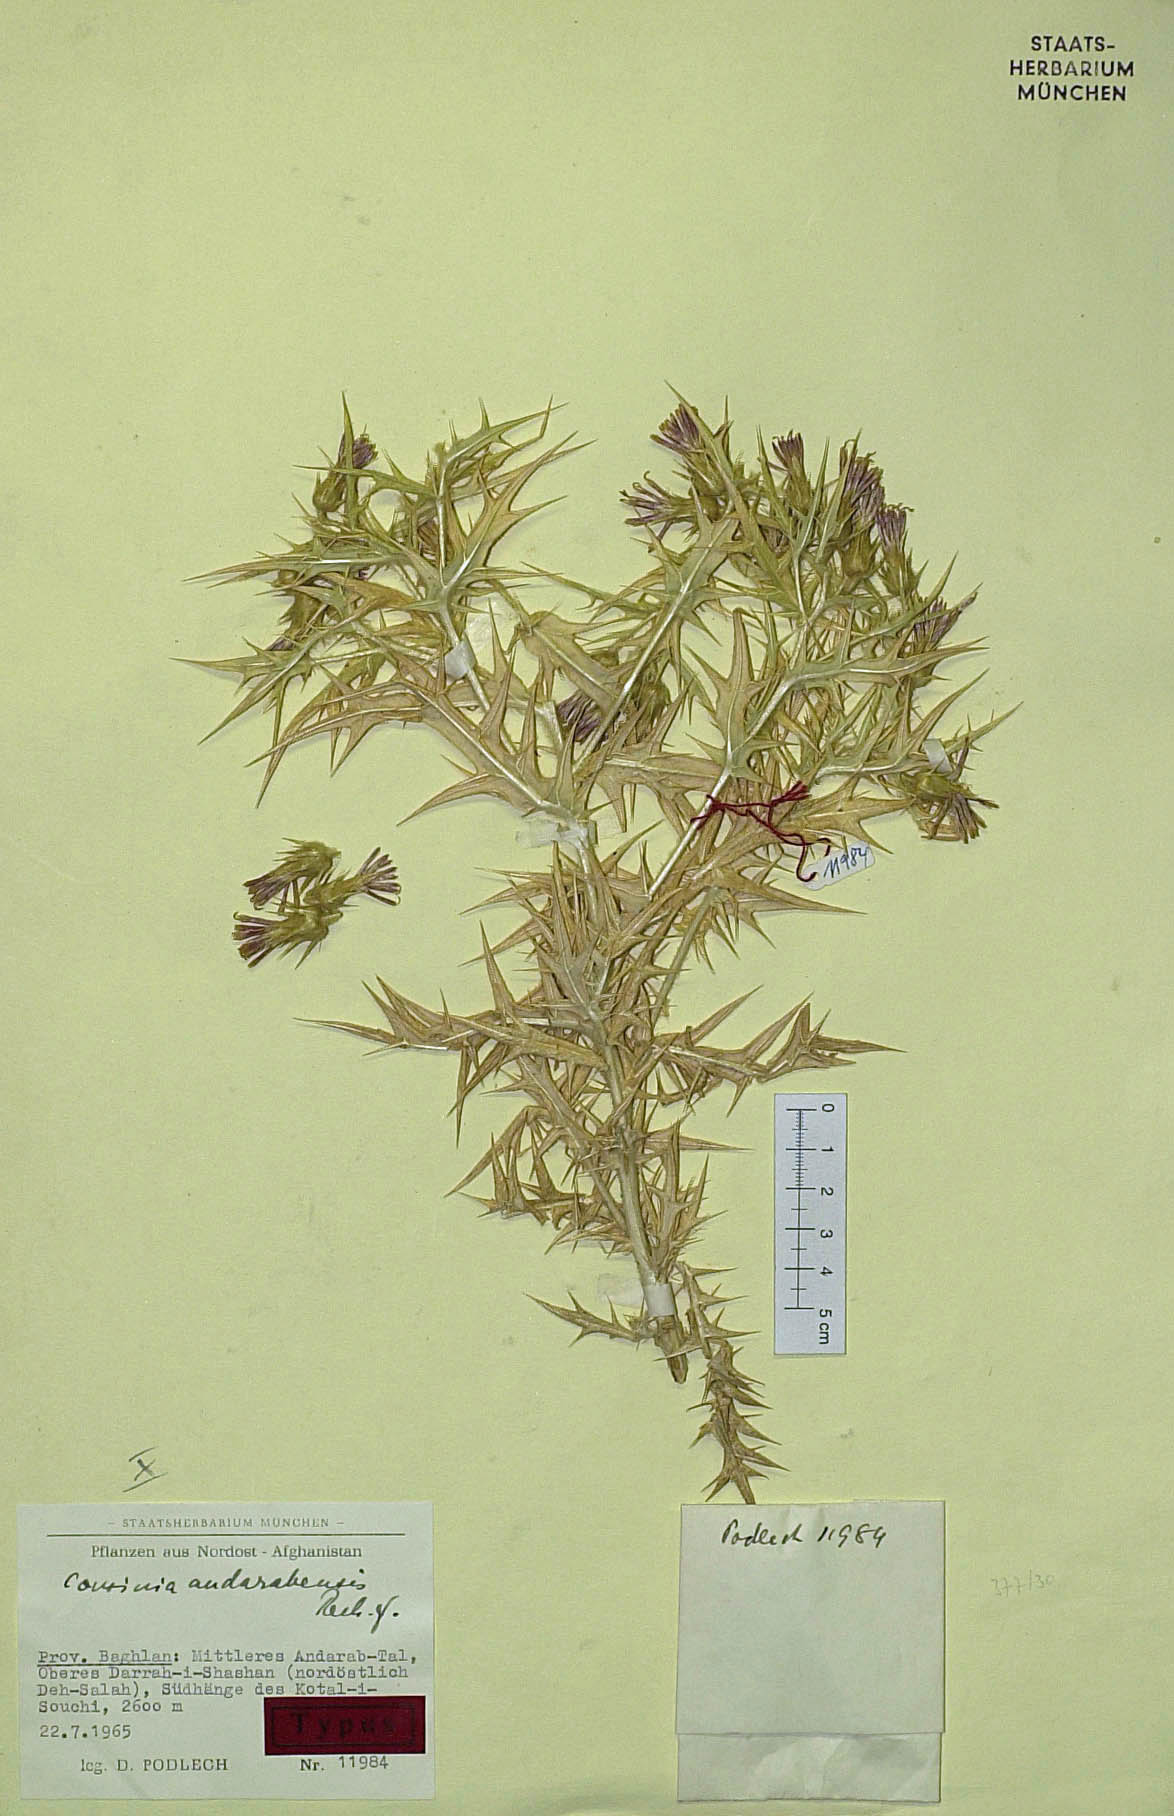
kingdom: Plantae
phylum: Tracheophyta
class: Magnoliopsida
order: Asterales
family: Asteraceae
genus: Cousinia
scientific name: Cousinia andarabensis
